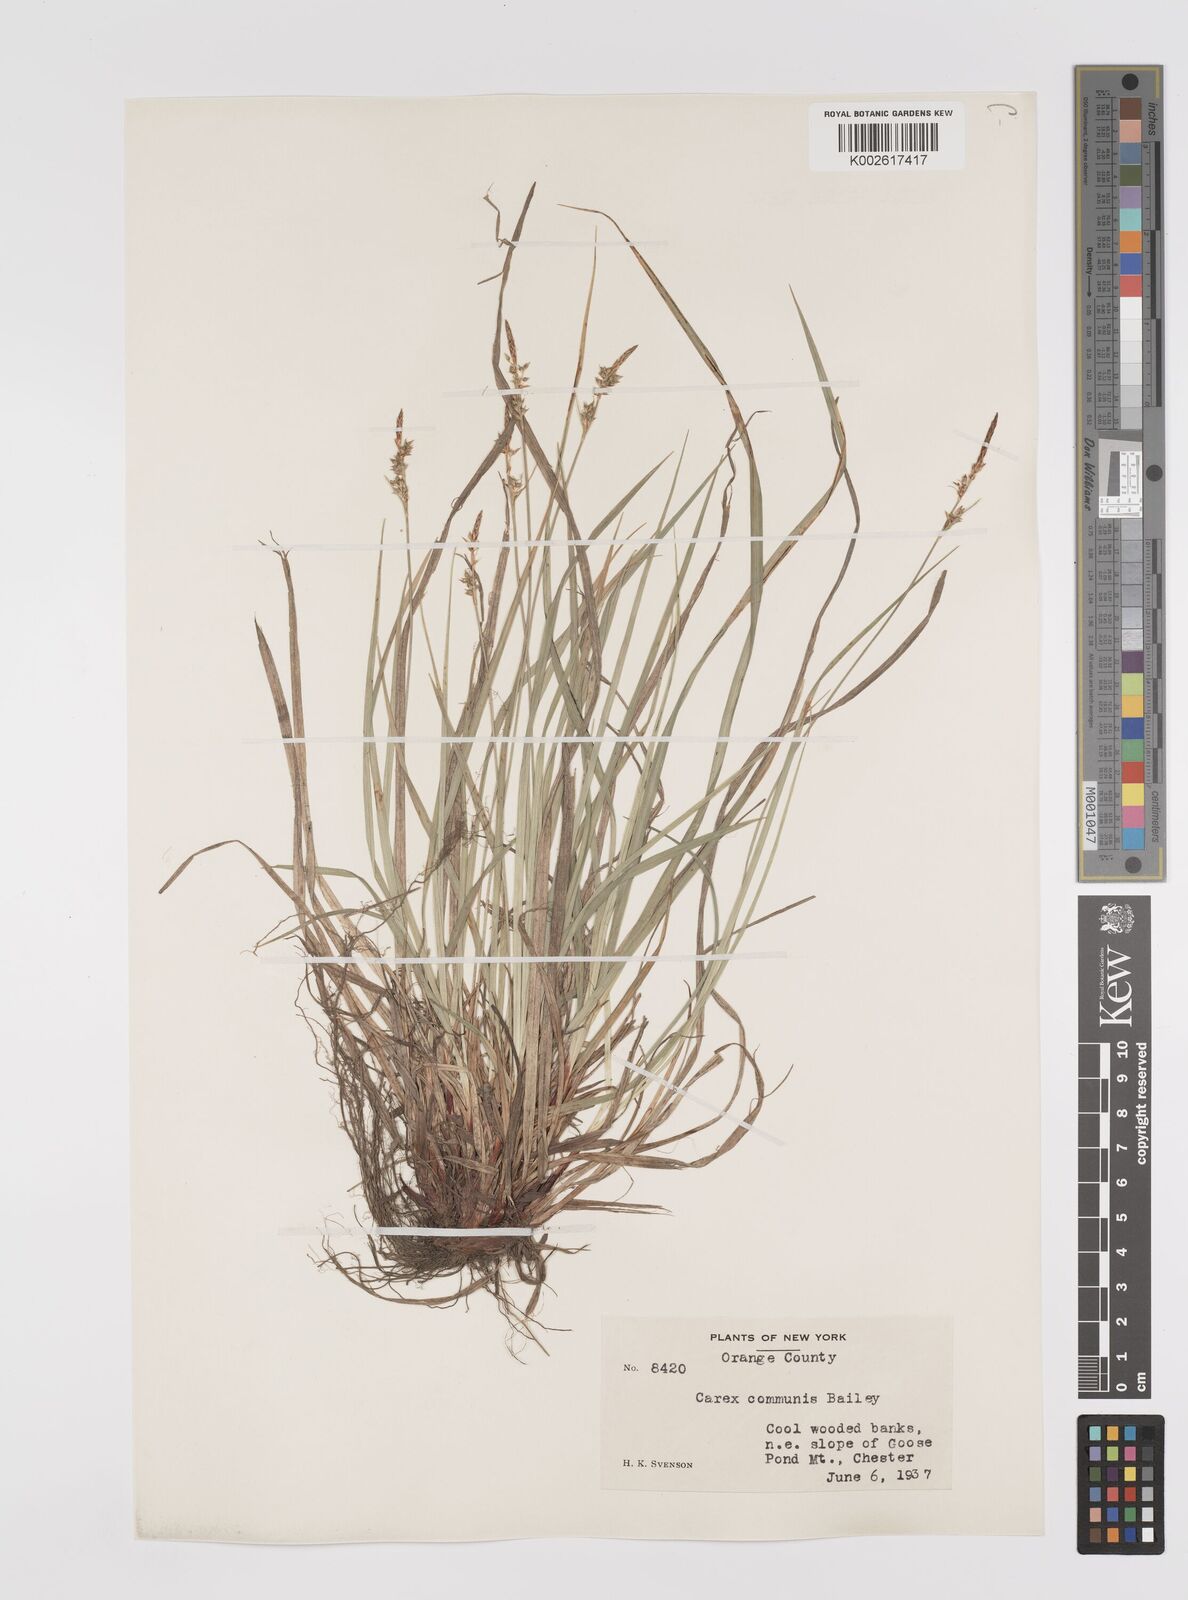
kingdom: Plantae
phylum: Tracheophyta
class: Liliopsida
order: Poales
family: Cyperaceae
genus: Carex
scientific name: Carex communis
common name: Colonial oak sedge
